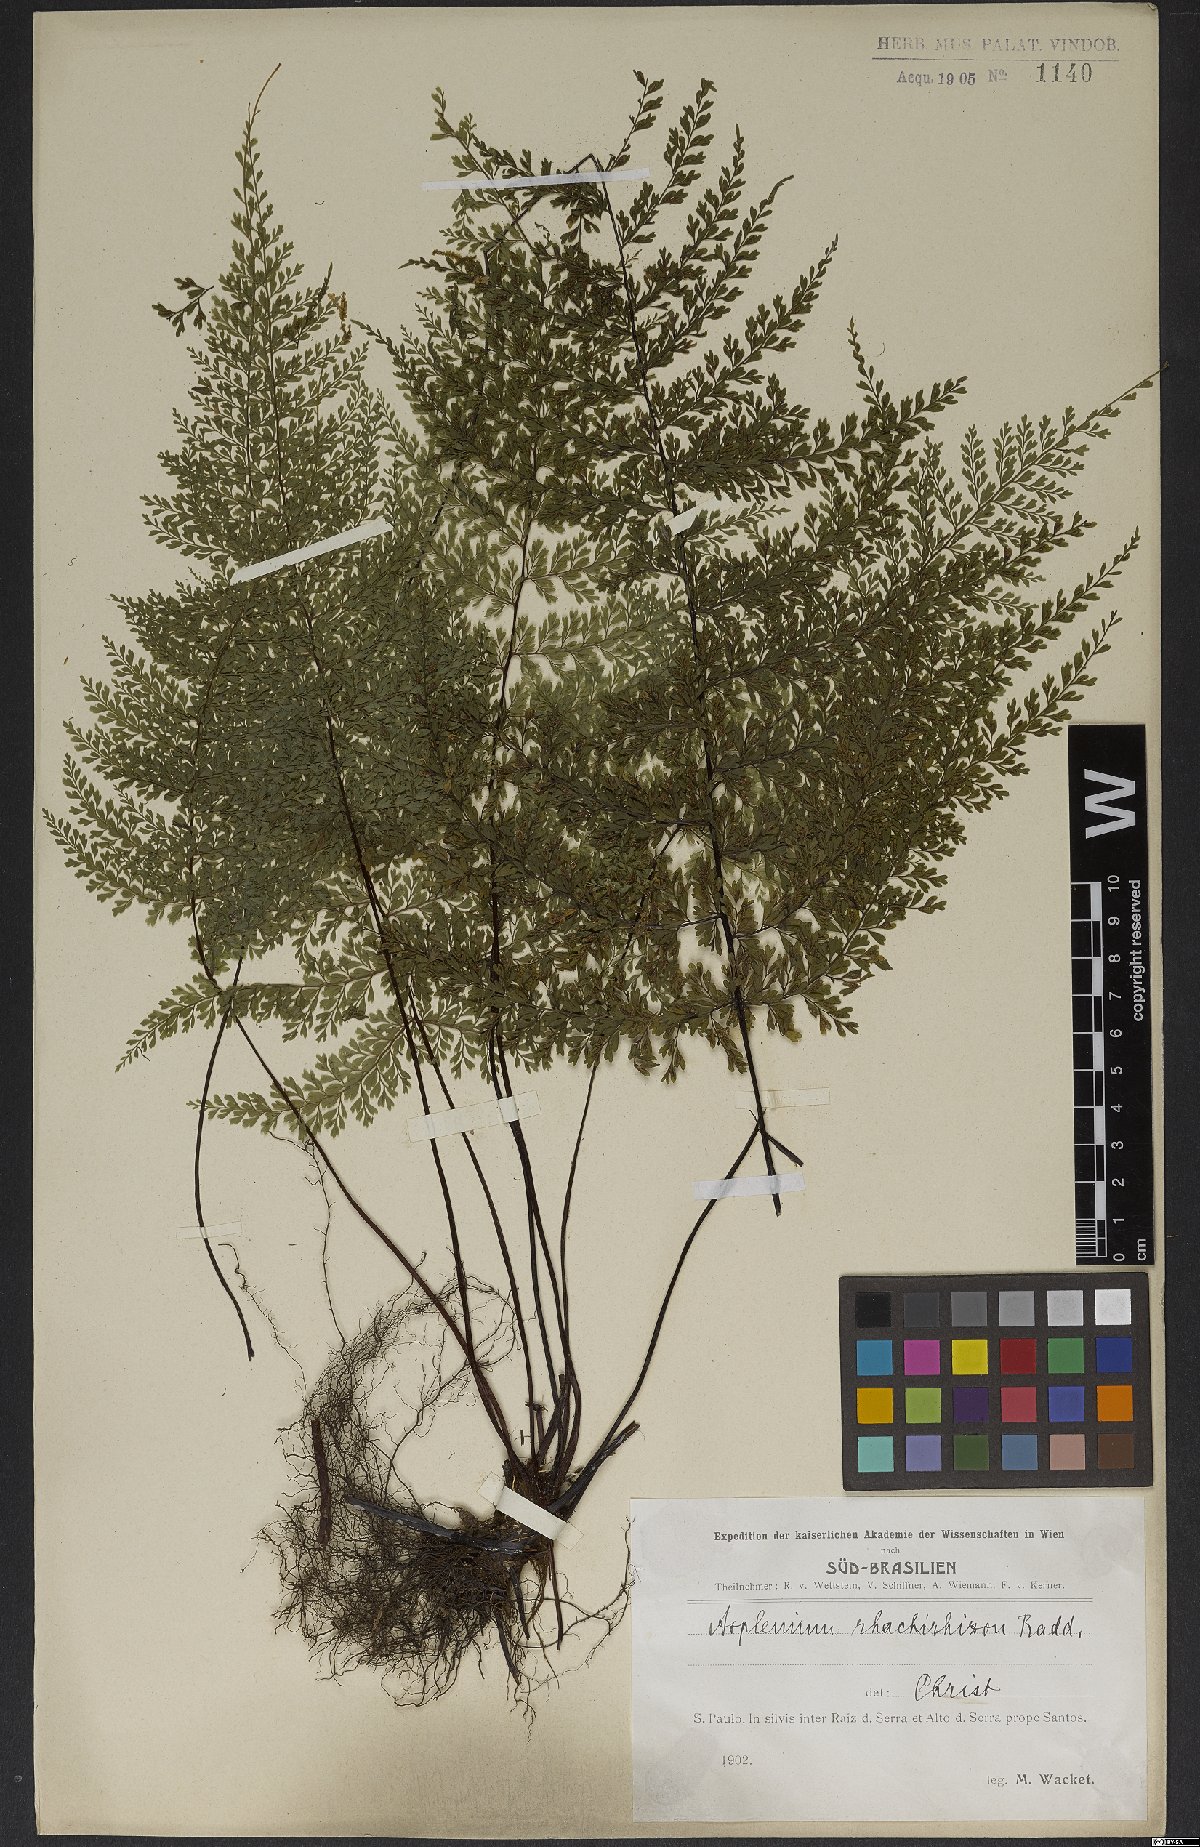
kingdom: Plantae
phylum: Tracheophyta
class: Polypodiopsida
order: Polypodiales
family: Aspleniaceae
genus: Asplenium
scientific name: Asplenium uniseriale
